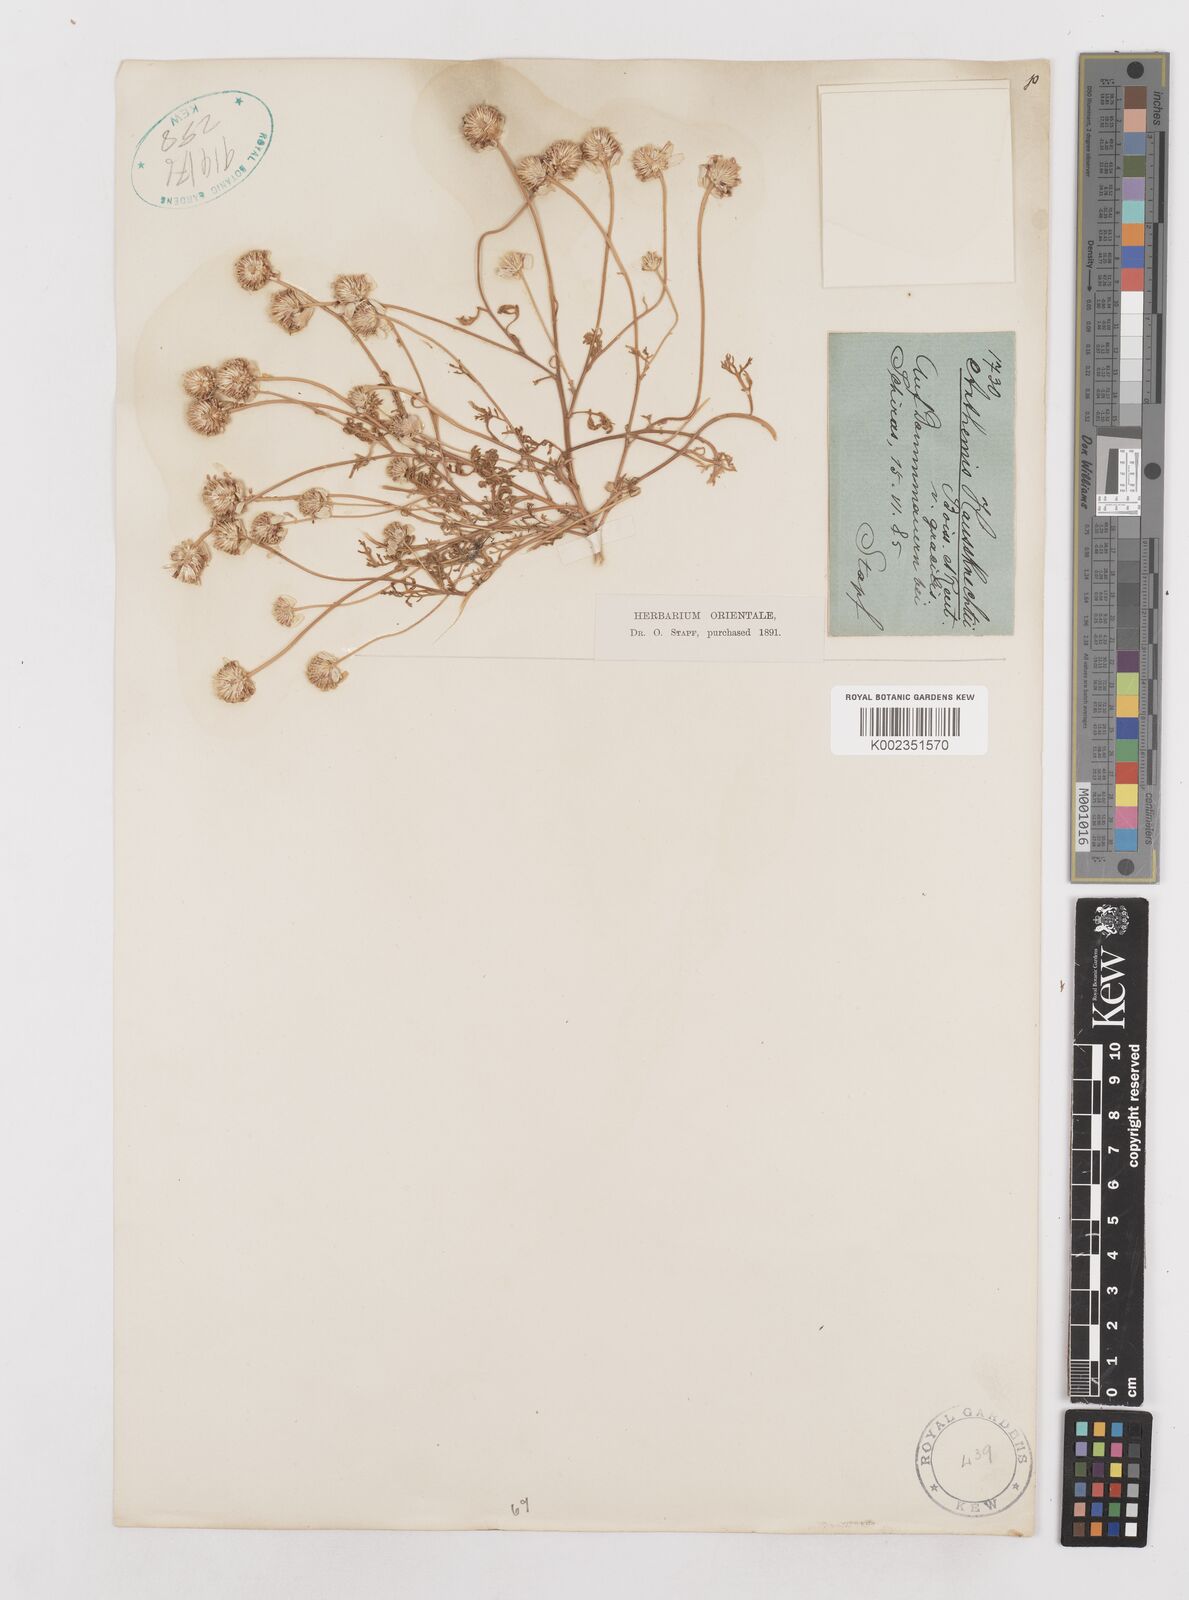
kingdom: Plantae
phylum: Tracheophyta
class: Magnoliopsida
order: Asterales
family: Asteraceae
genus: Anthemis
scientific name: Anthemis haussknechtii
